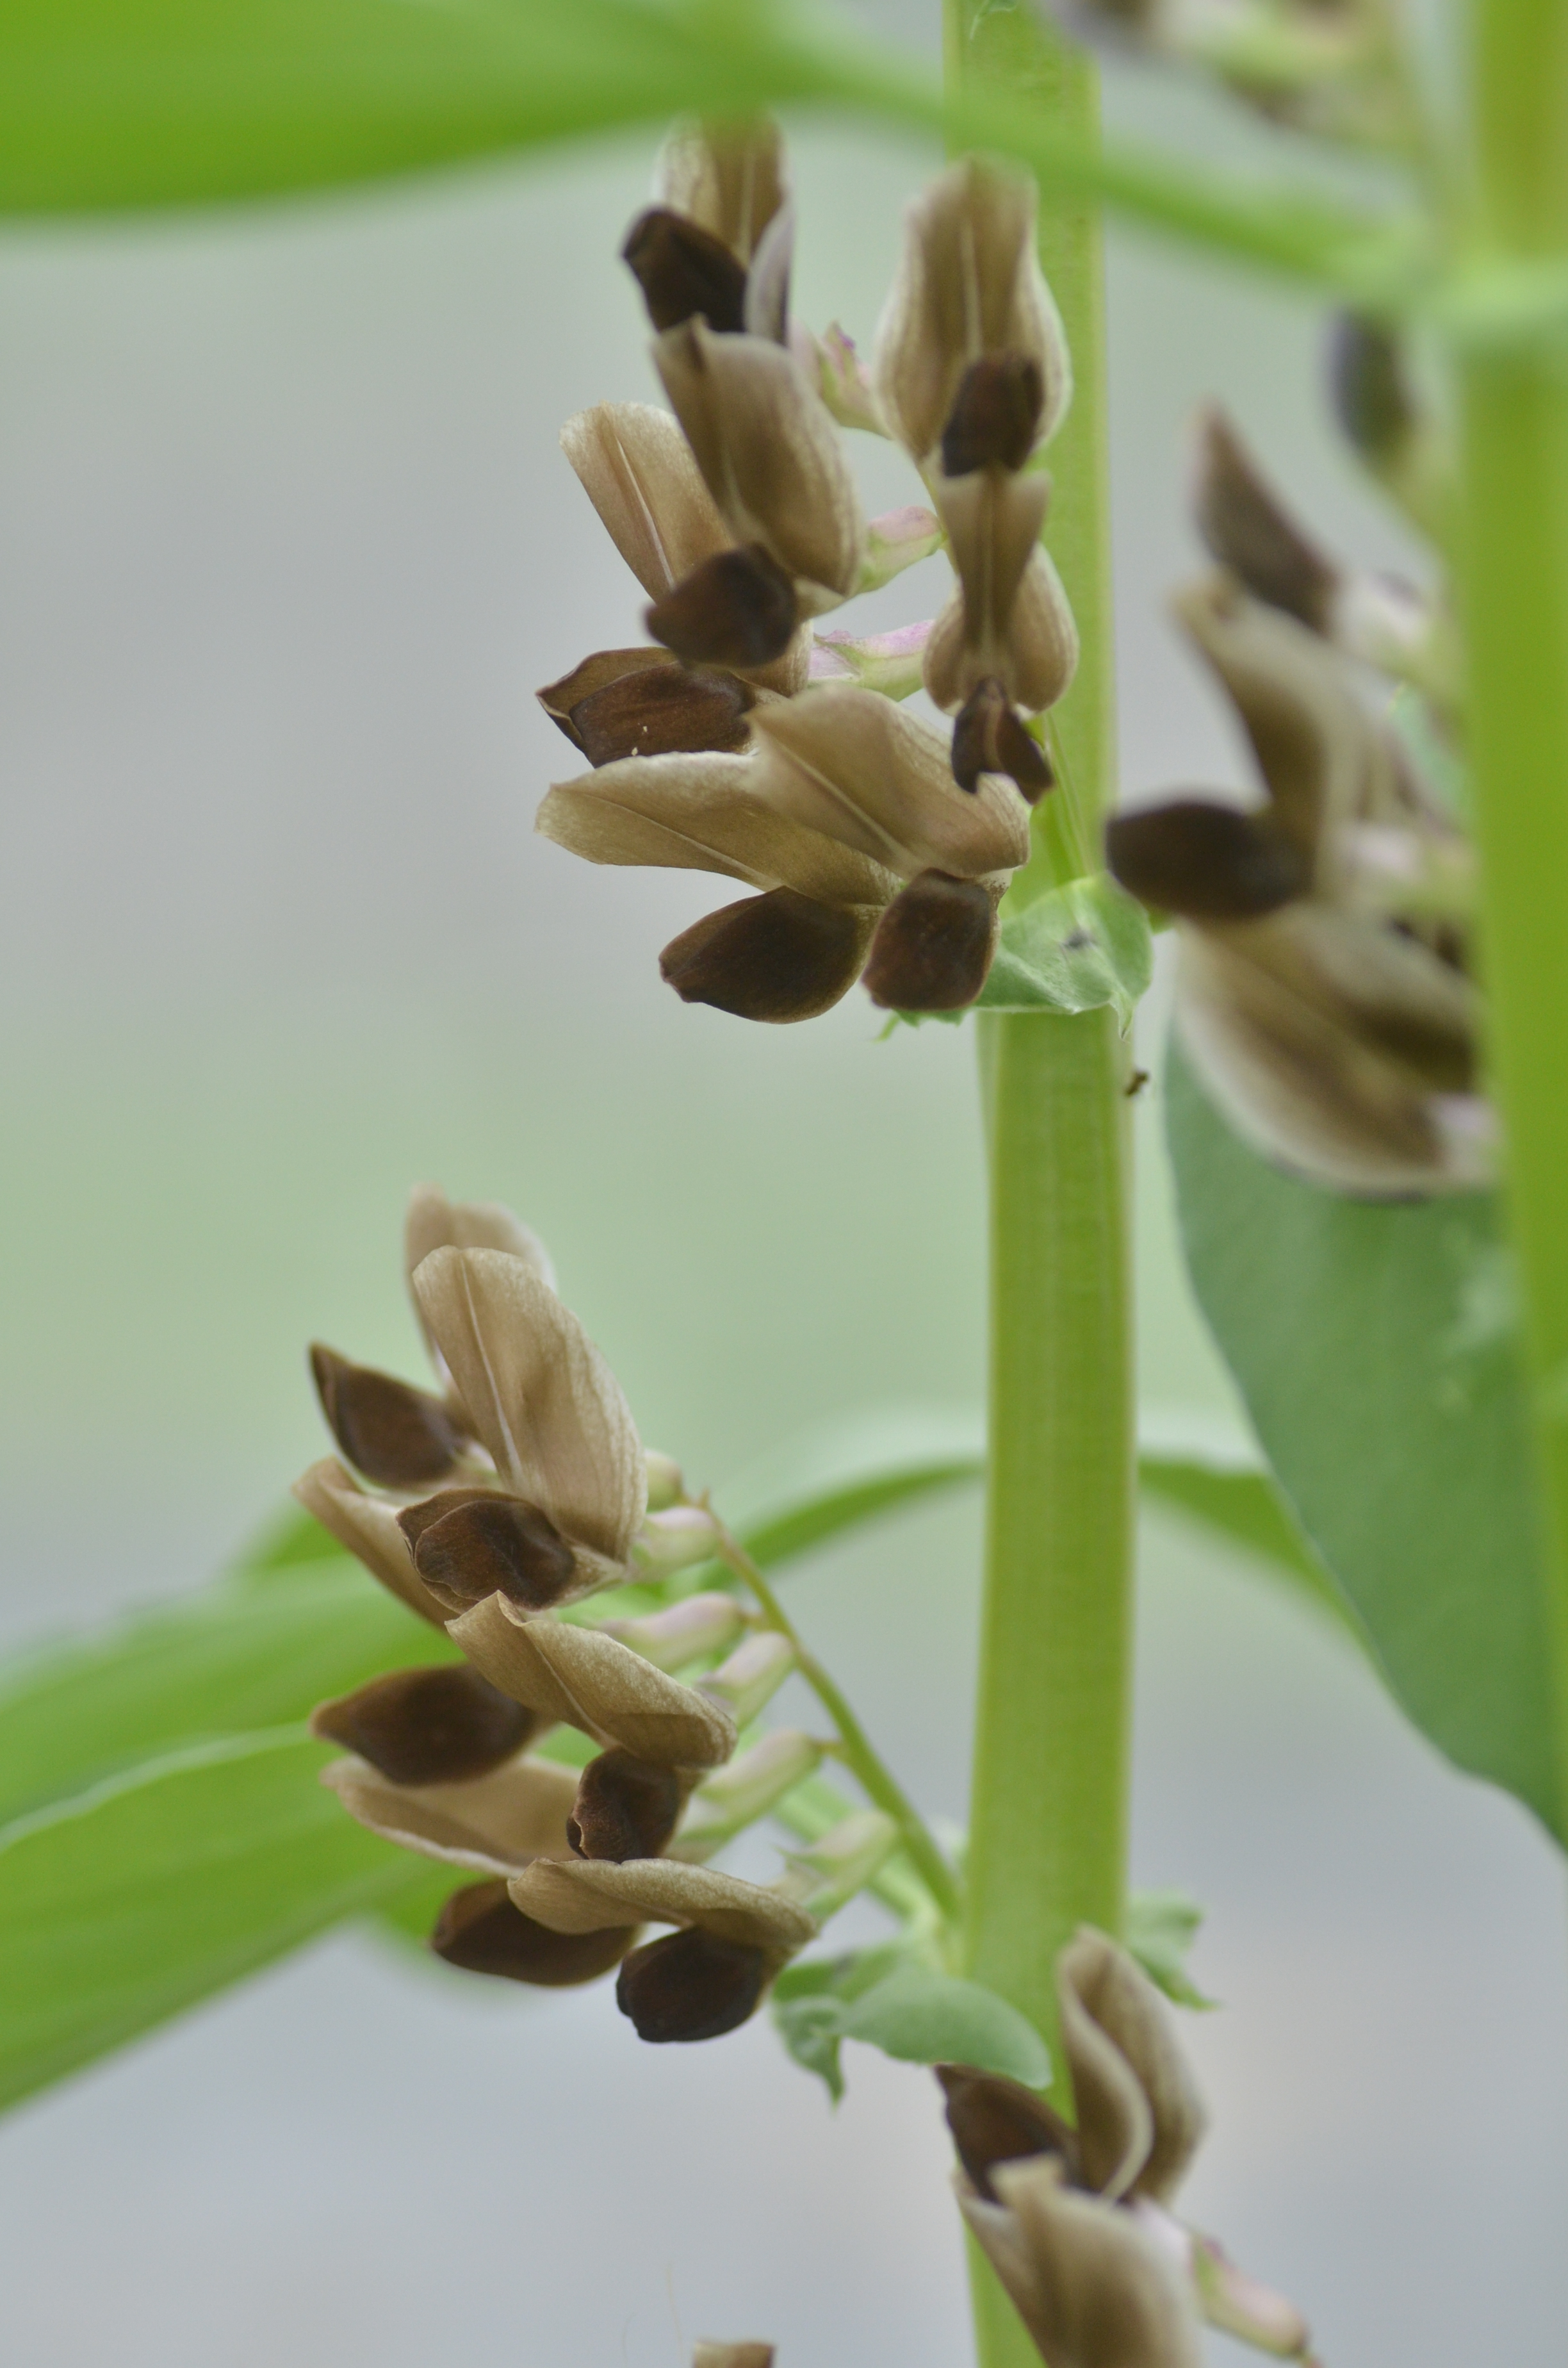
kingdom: Plantae
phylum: Tracheophyta
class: Liliopsida
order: Poales
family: Poaceae
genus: Poa
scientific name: Poa pratensis
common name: Kentucky bluegrass
